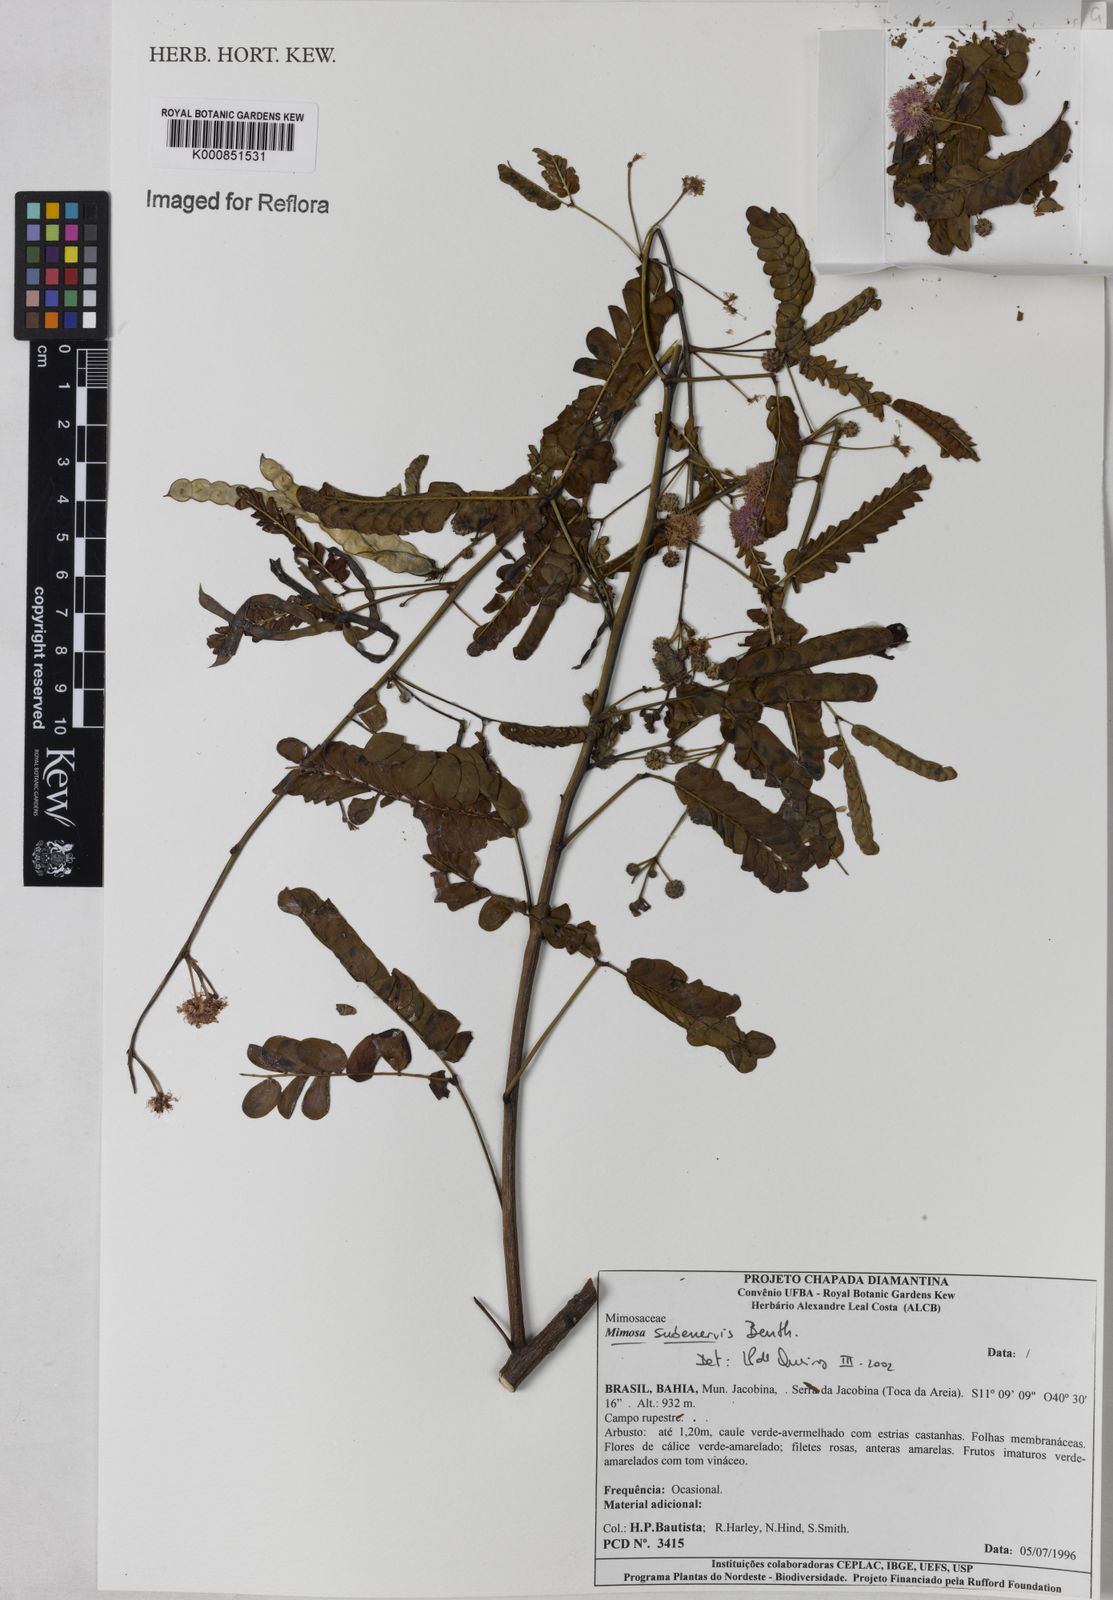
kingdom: Plantae
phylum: Tracheophyta
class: Magnoliopsida
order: Fabales
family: Fabaceae
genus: Mimosa
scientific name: Mimosa subenervis
